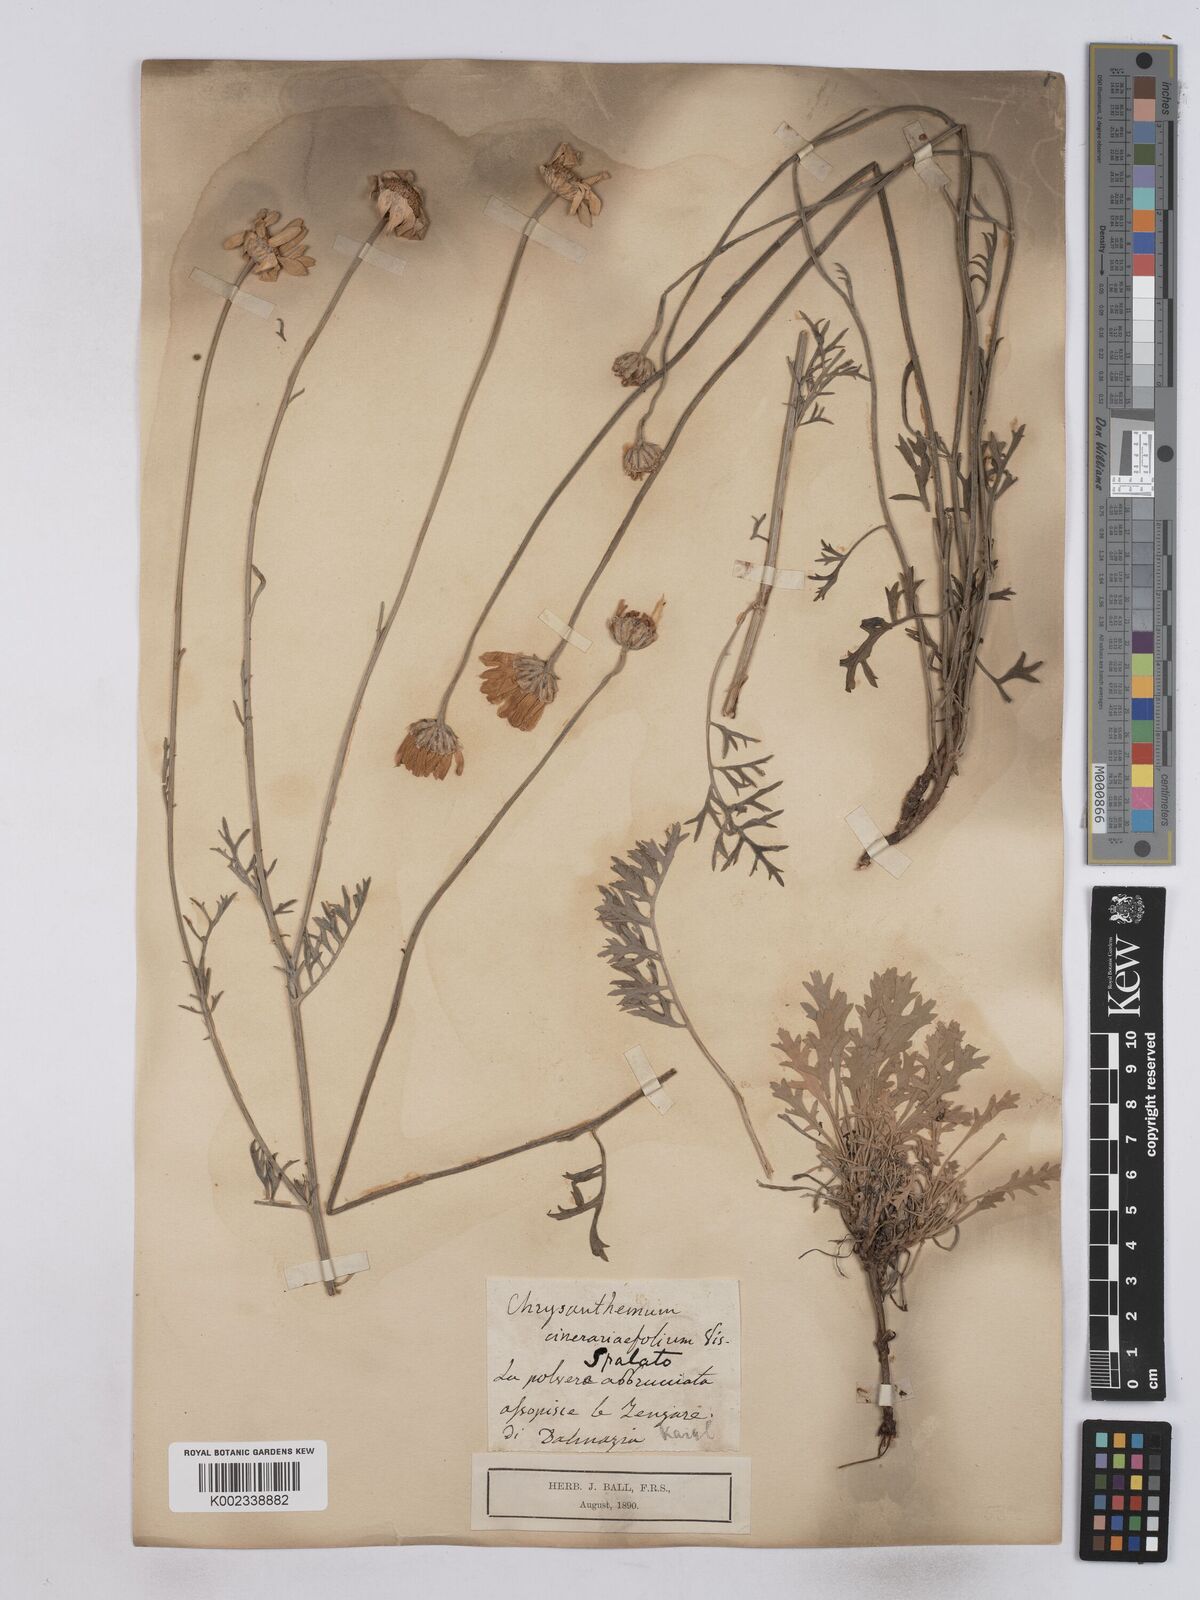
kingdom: Plantae
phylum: Tracheophyta
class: Magnoliopsida
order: Asterales
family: Asteraceae
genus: Tanacetum
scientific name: Tanacetum cinerariifolium
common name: Dalmatian pyrethrum
